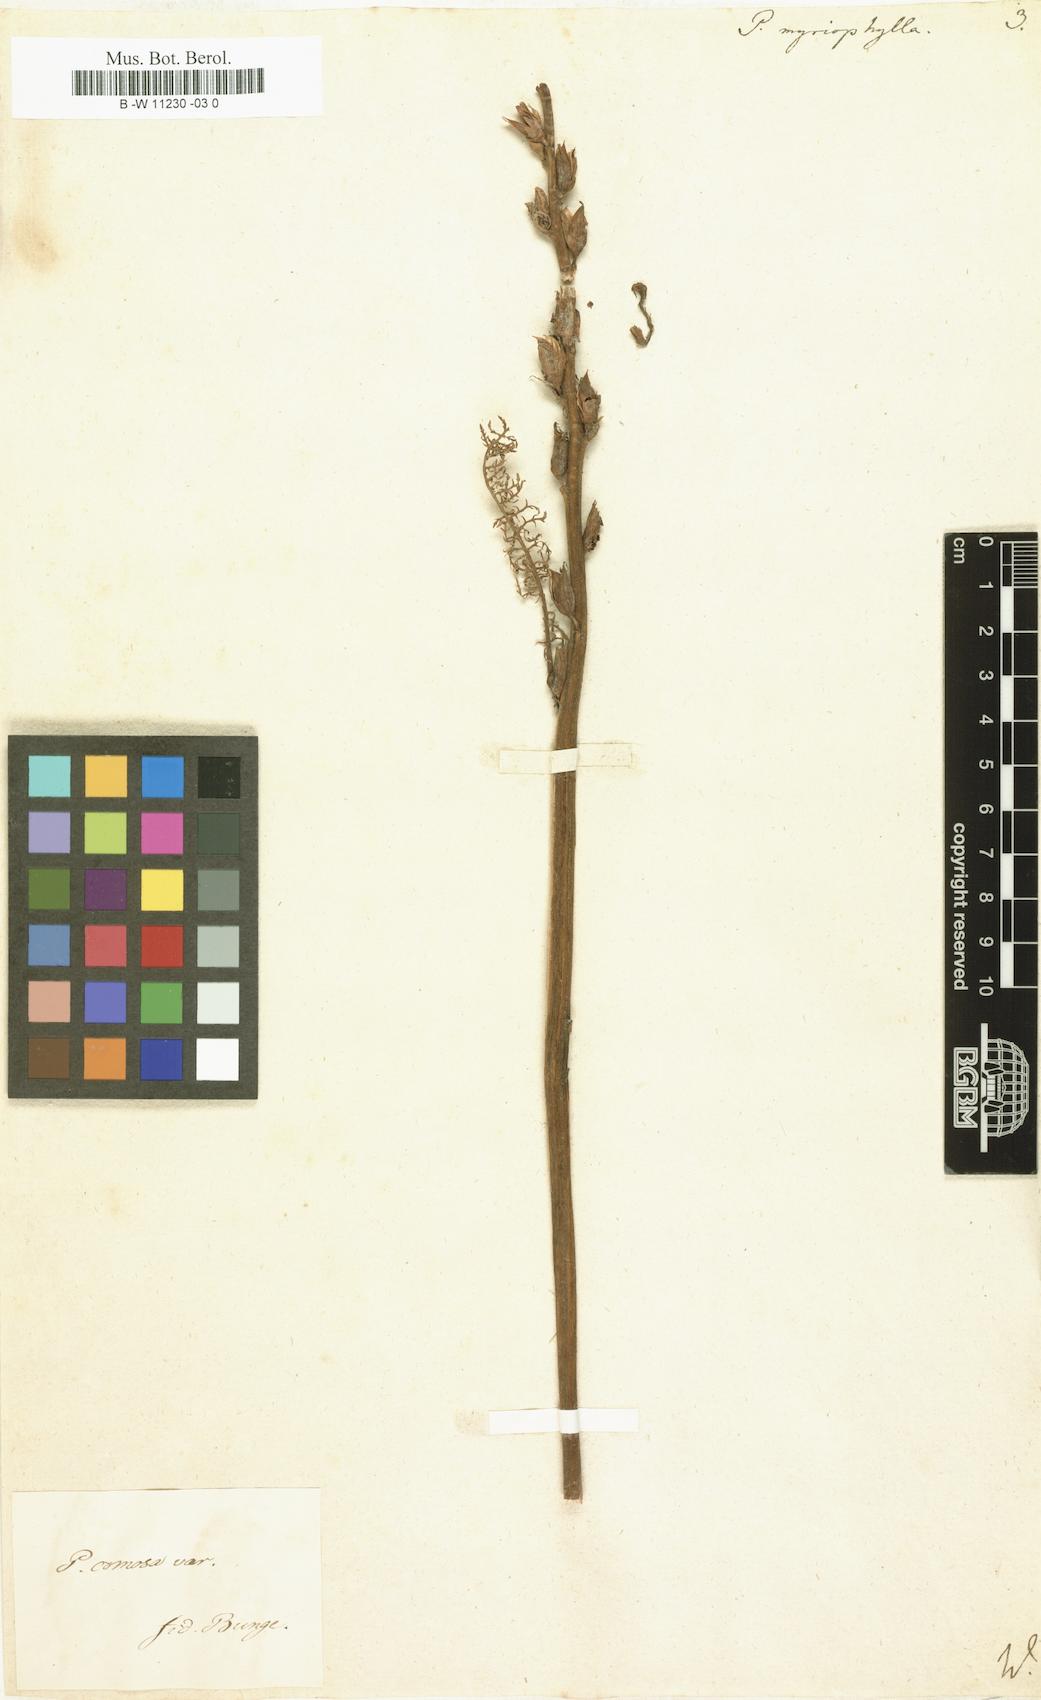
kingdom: Plantae
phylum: Tracheophyta
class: Magnoliopsida
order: Lamiales
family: Orobanchaceae
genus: Pedicularis
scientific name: Pedicularis myriophylla
